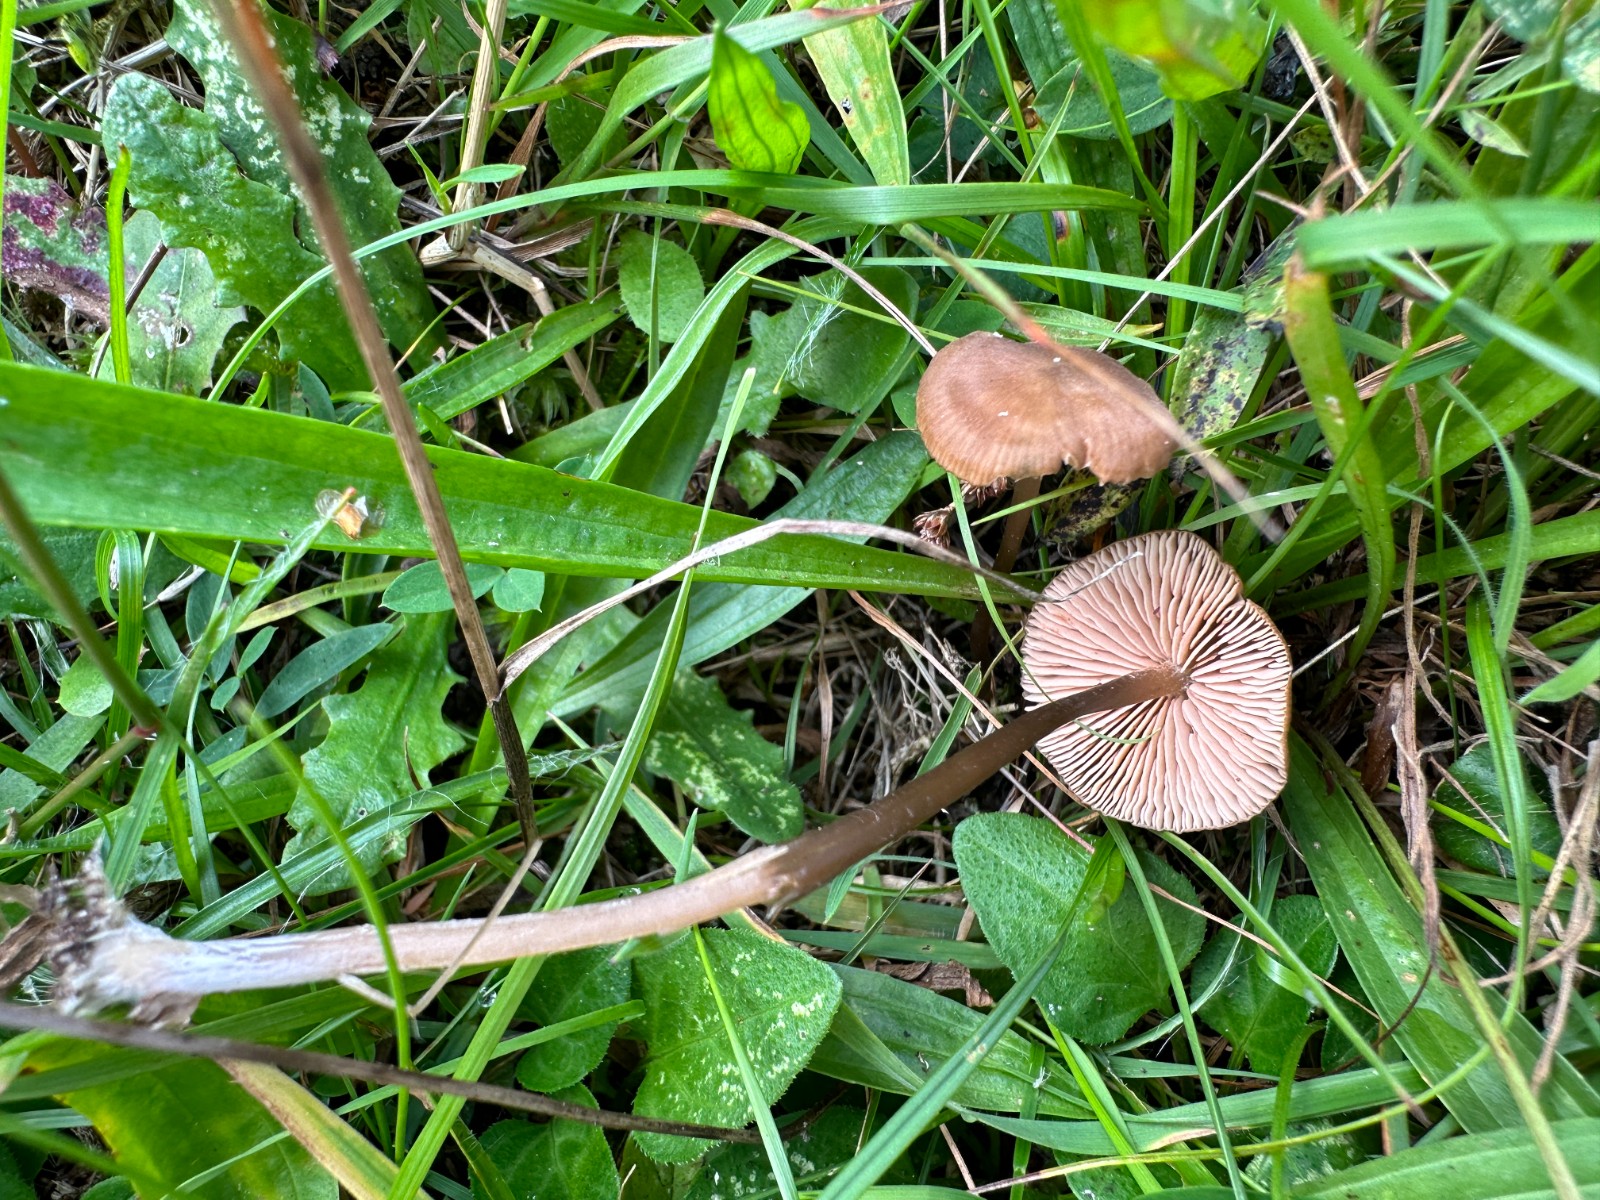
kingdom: Fungi
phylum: Basidiomycota
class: Agaricomycetes
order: Agaricales
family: Entolomataceae
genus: Entoloma
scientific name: Entoloma clandestinum
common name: tykbladet rødblad
